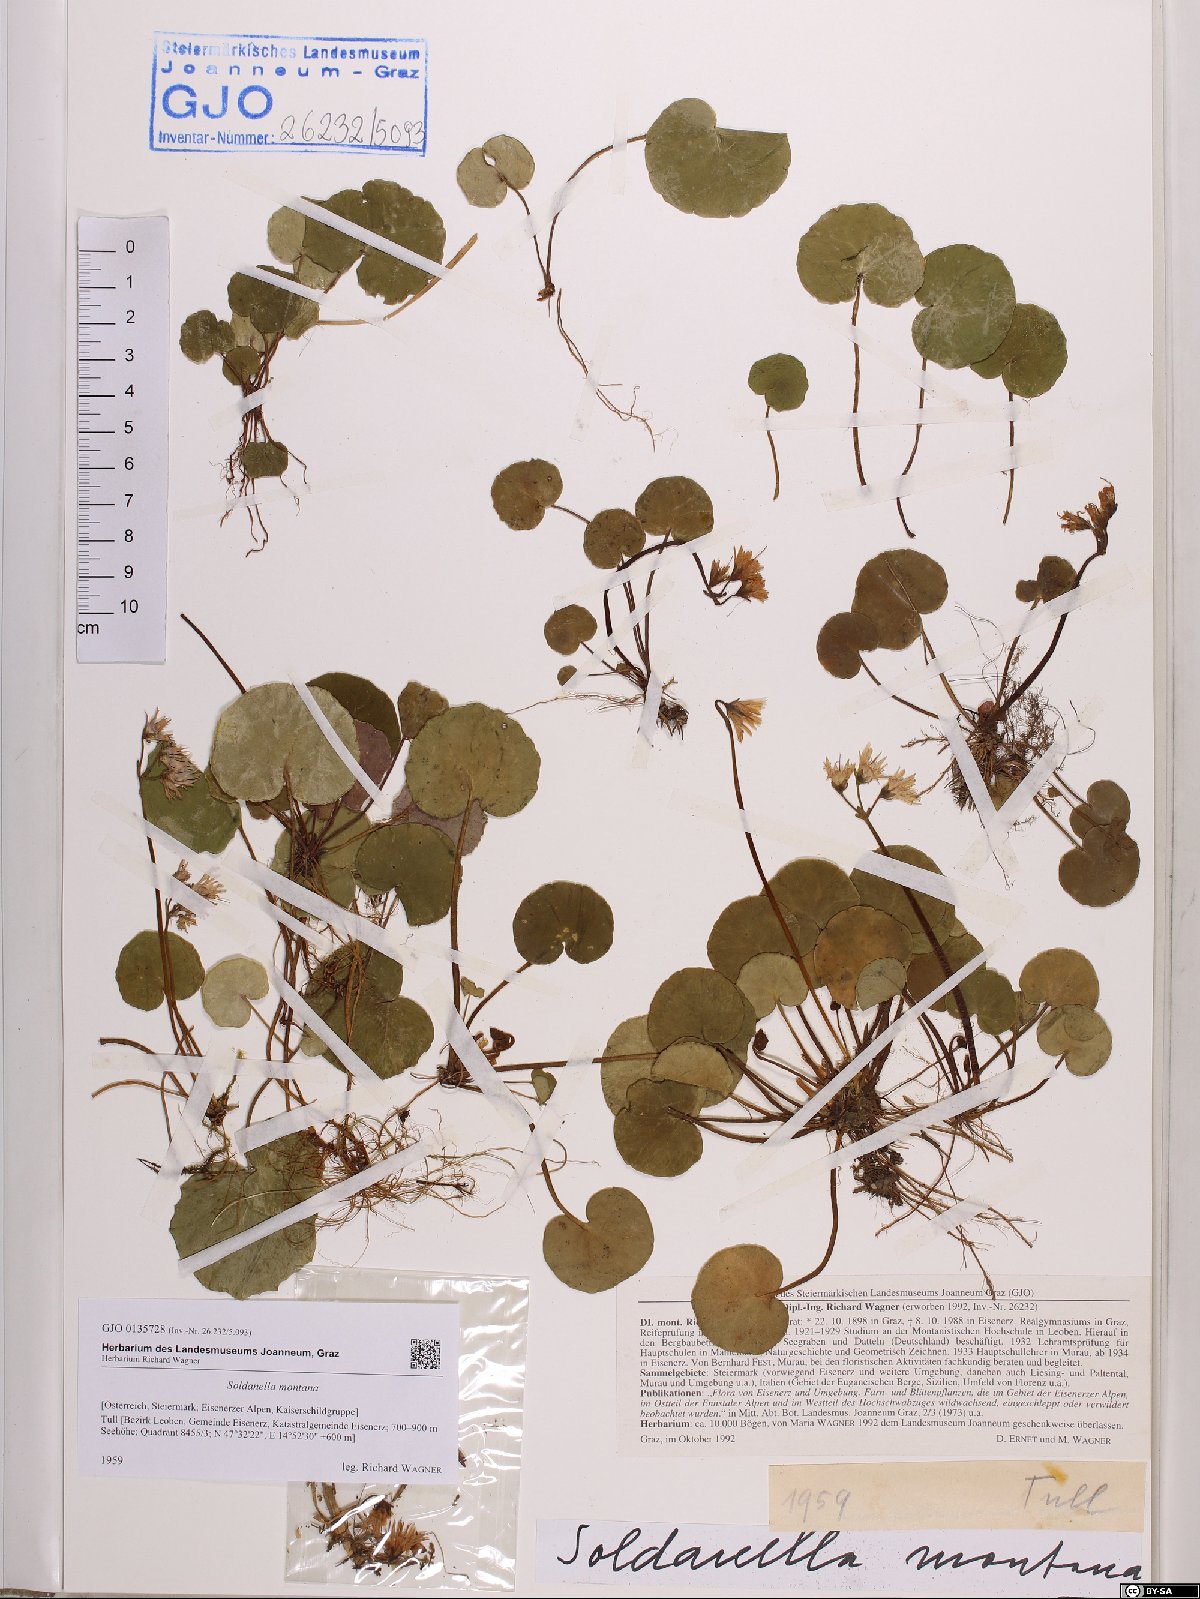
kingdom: Plantae
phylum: Tracheophyta
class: Magnoliopsida
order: Ericales
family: Primulaceae
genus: Soldanella
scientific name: Soldanella montana
